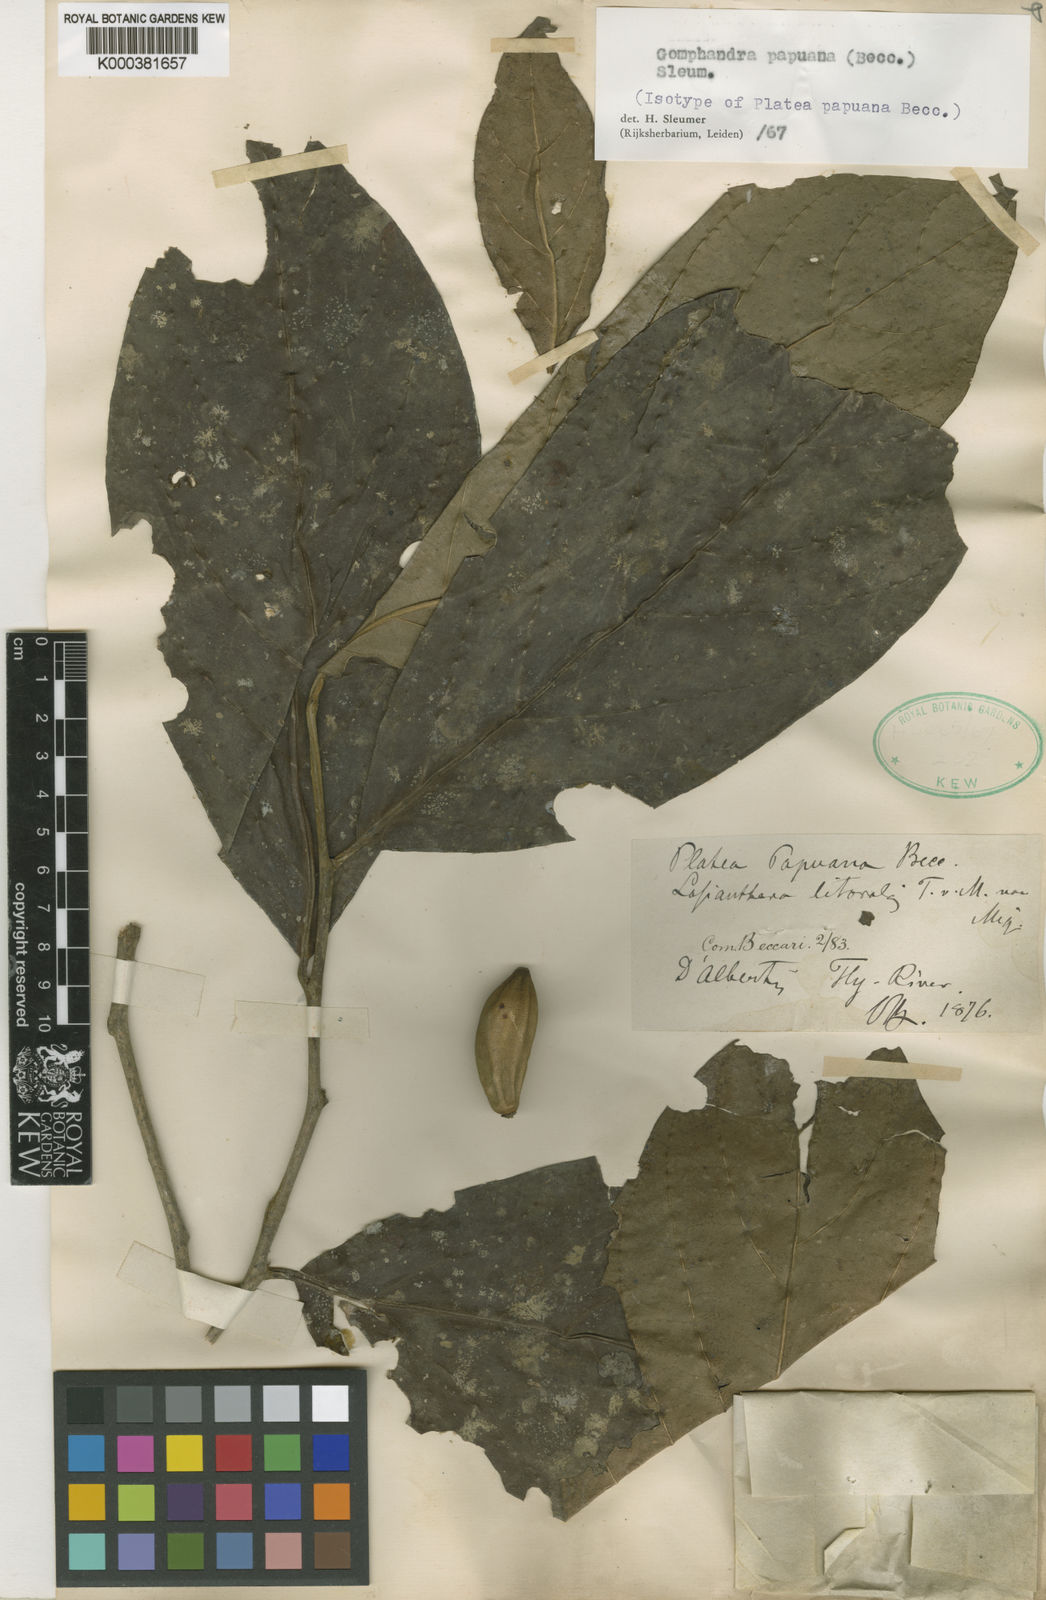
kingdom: Plantae
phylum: Tracheophyta
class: Magnoliopsida
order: Cardiopteridales
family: Stemonuraceae
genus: Gomphandra
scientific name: Gomphandra papuana
